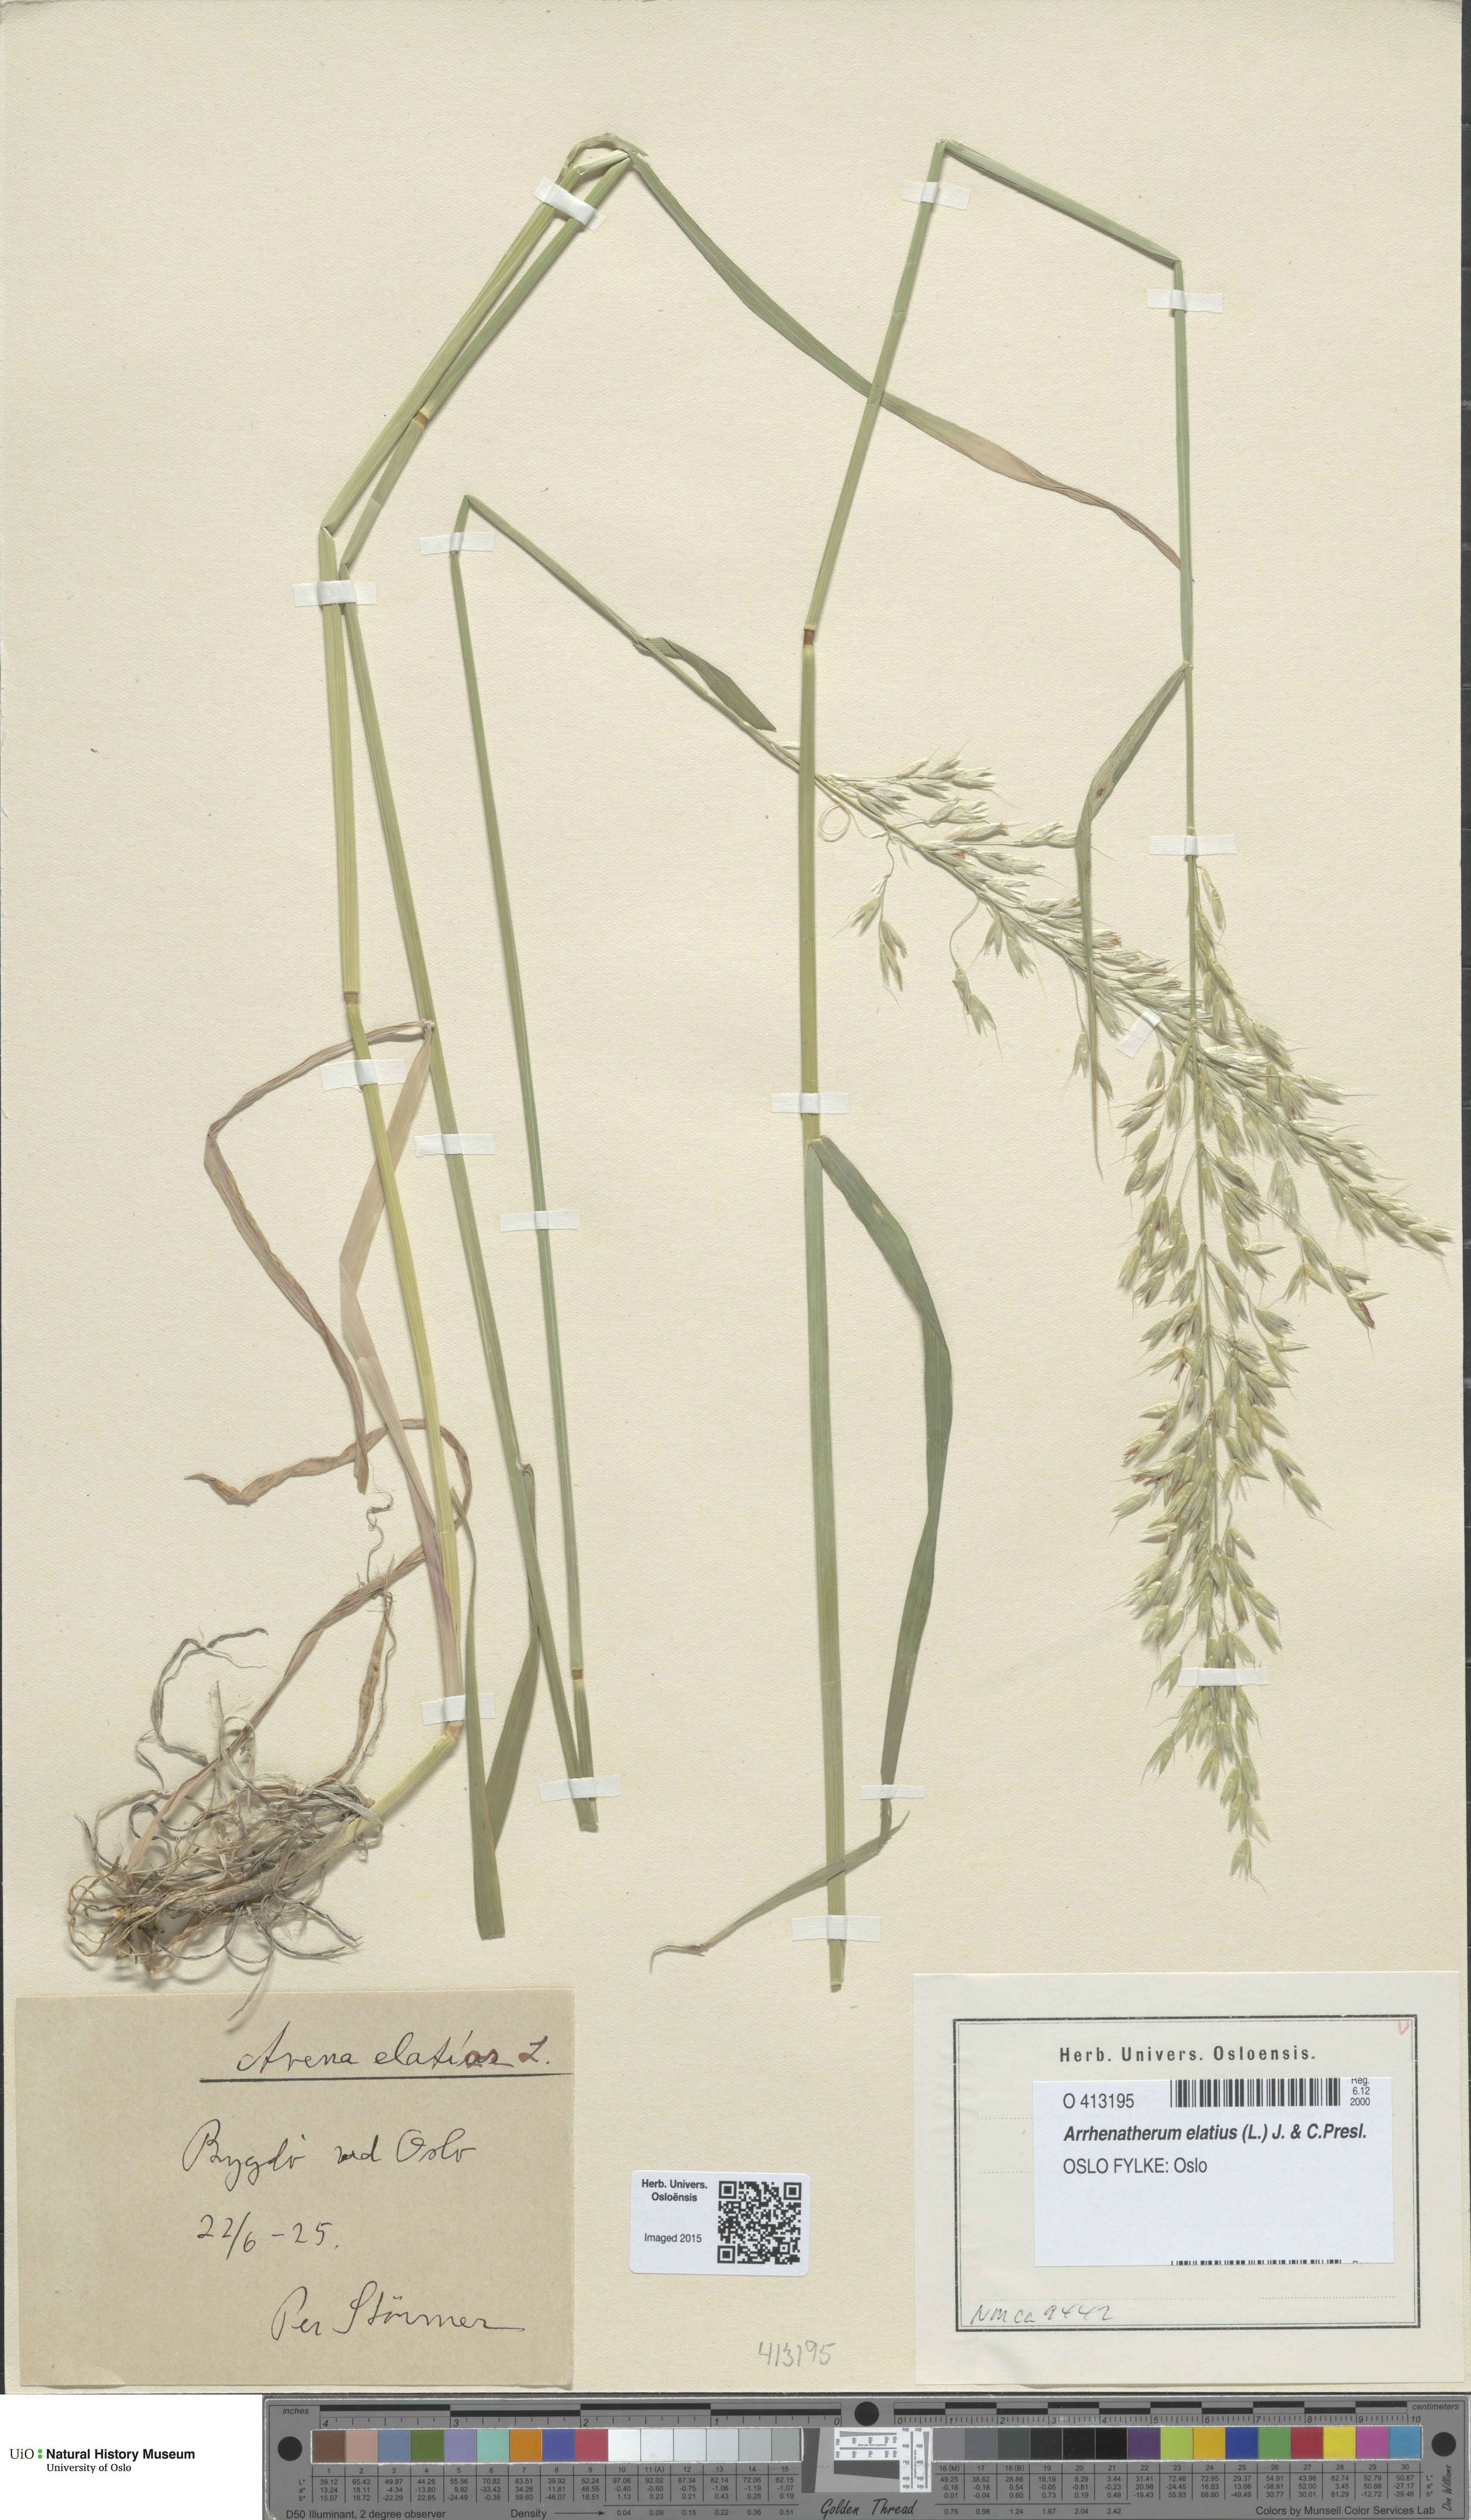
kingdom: Plantae
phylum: Tracheophyta
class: Liliopsida
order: Poales
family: Poaceae
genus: Arrhenatherum
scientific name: Arrhenatherum elatius
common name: Tall oatgrass
